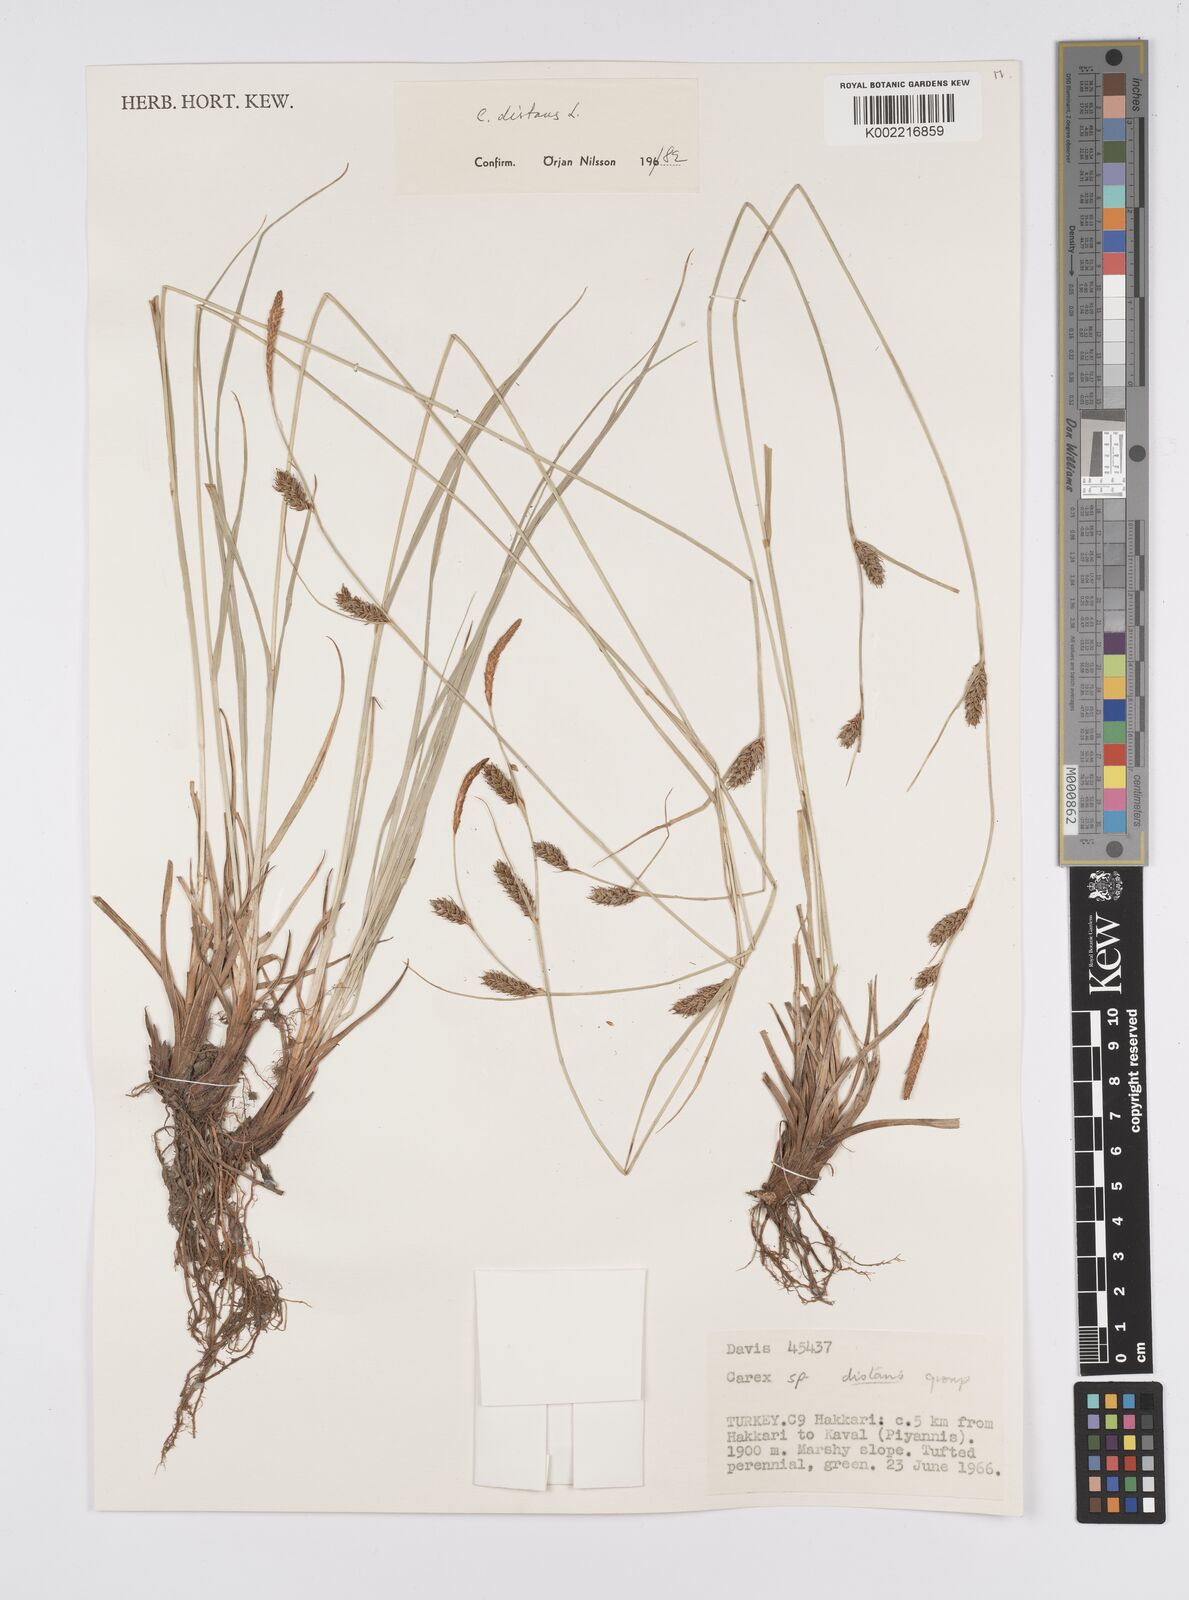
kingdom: Plantae
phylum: Tracheophyta
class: Liliopsida
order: Poales
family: Cyperaceae
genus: Carex
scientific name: Carex distans
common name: Distant sedge
